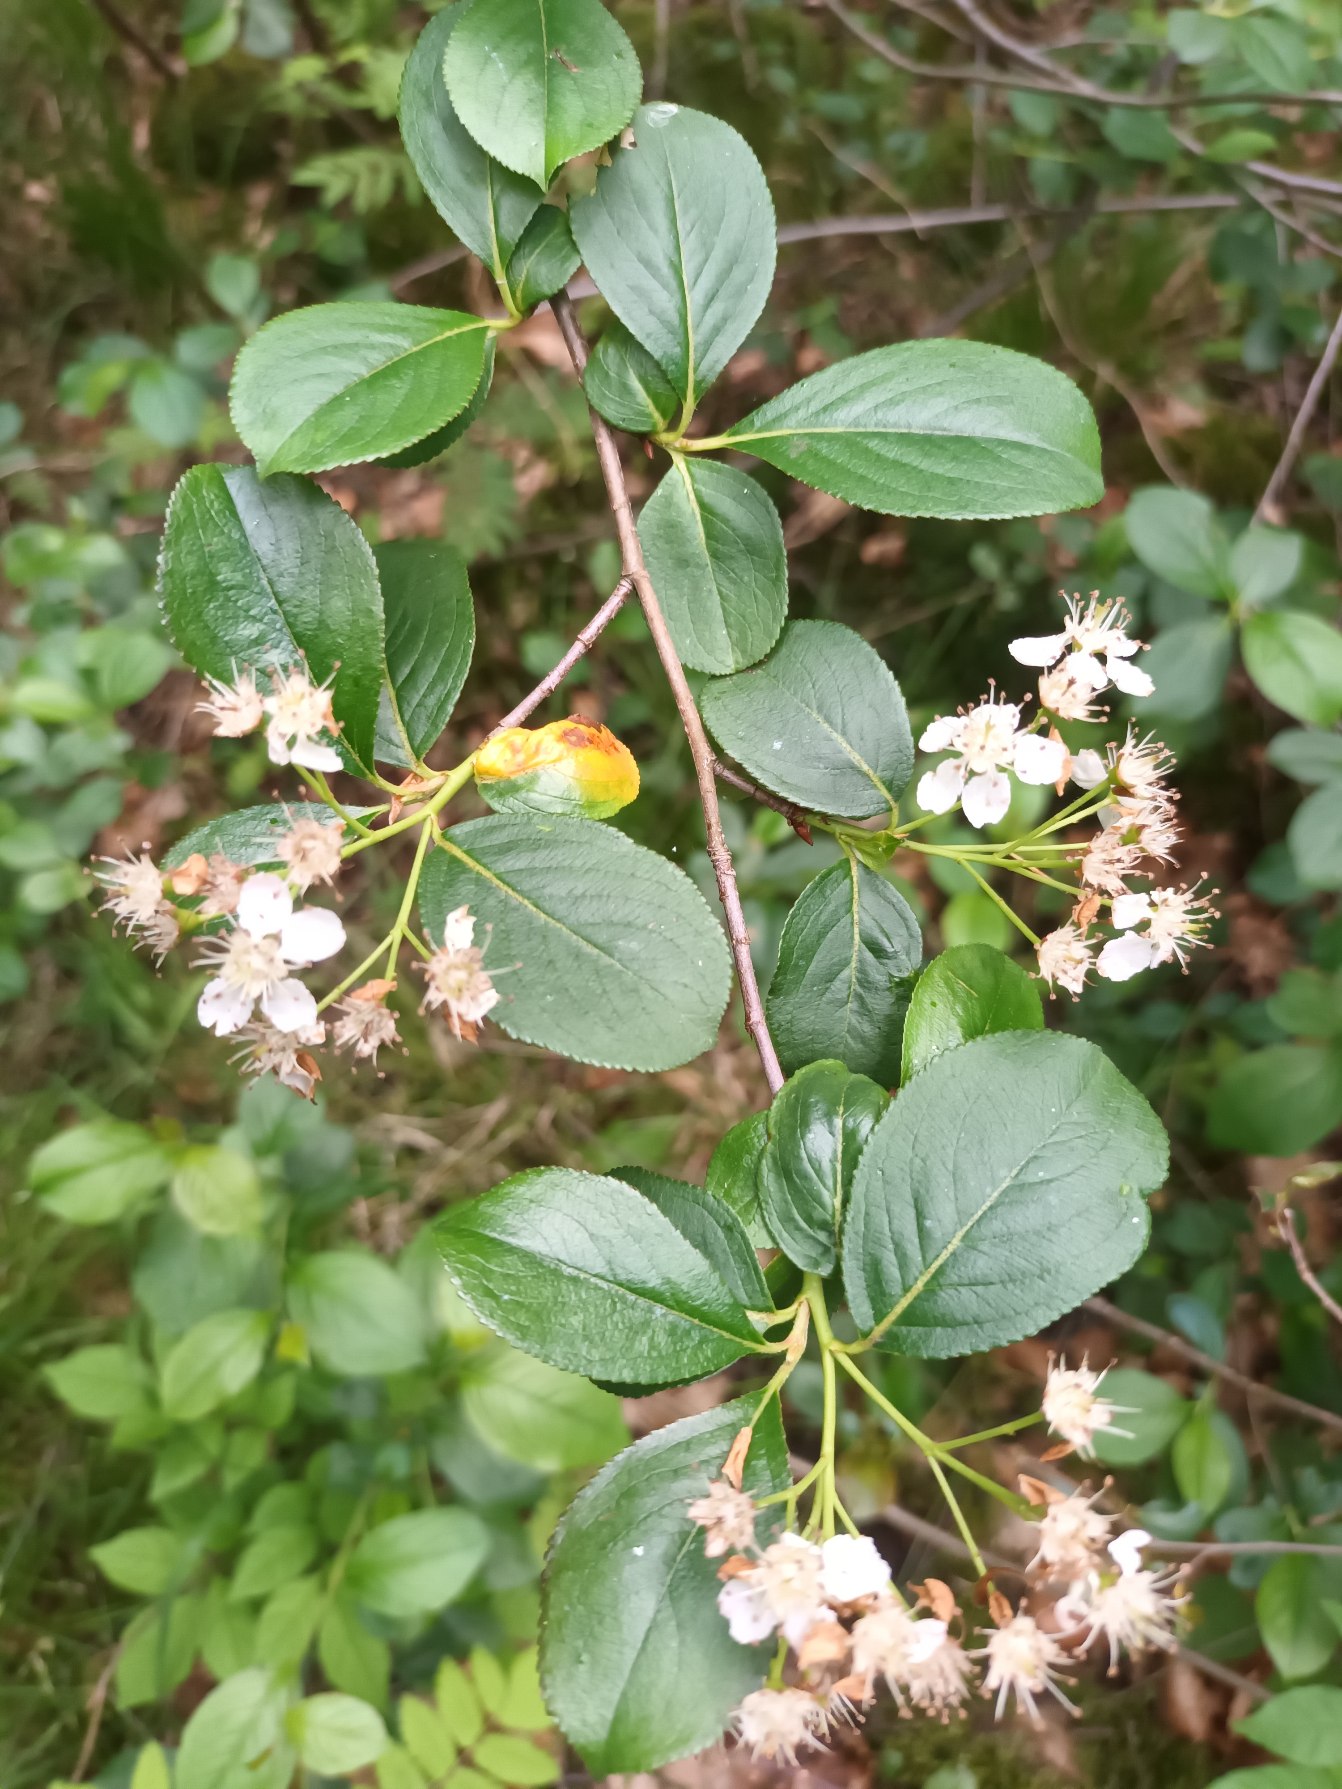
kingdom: Plantae
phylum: Tracheophyta
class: Magnoliopsida
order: Rosales
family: Rosaceae
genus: Aronia
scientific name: Aronia melanocarpa
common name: Sortfrugtet surbær
